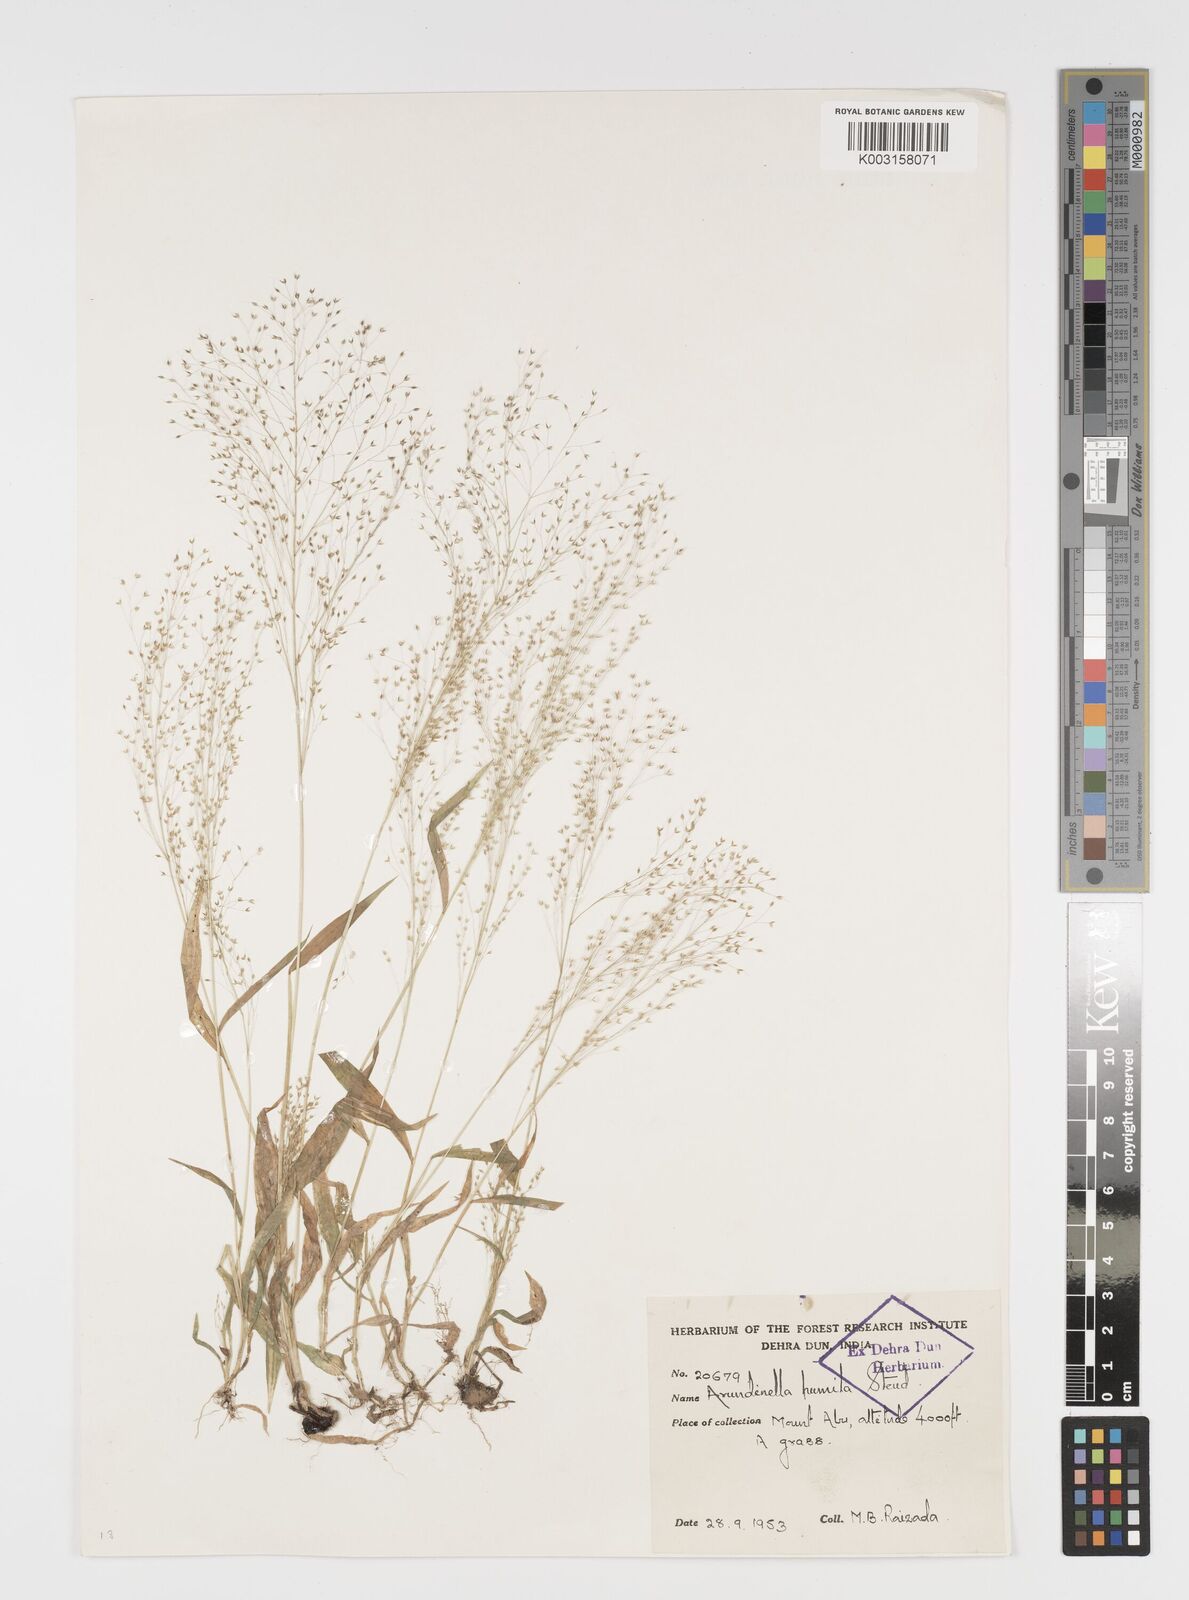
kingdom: Plantae
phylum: Tracheophyta
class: Liliopsida
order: Poales
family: Poaceae
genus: Arundinella
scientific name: Arundinella pumila
